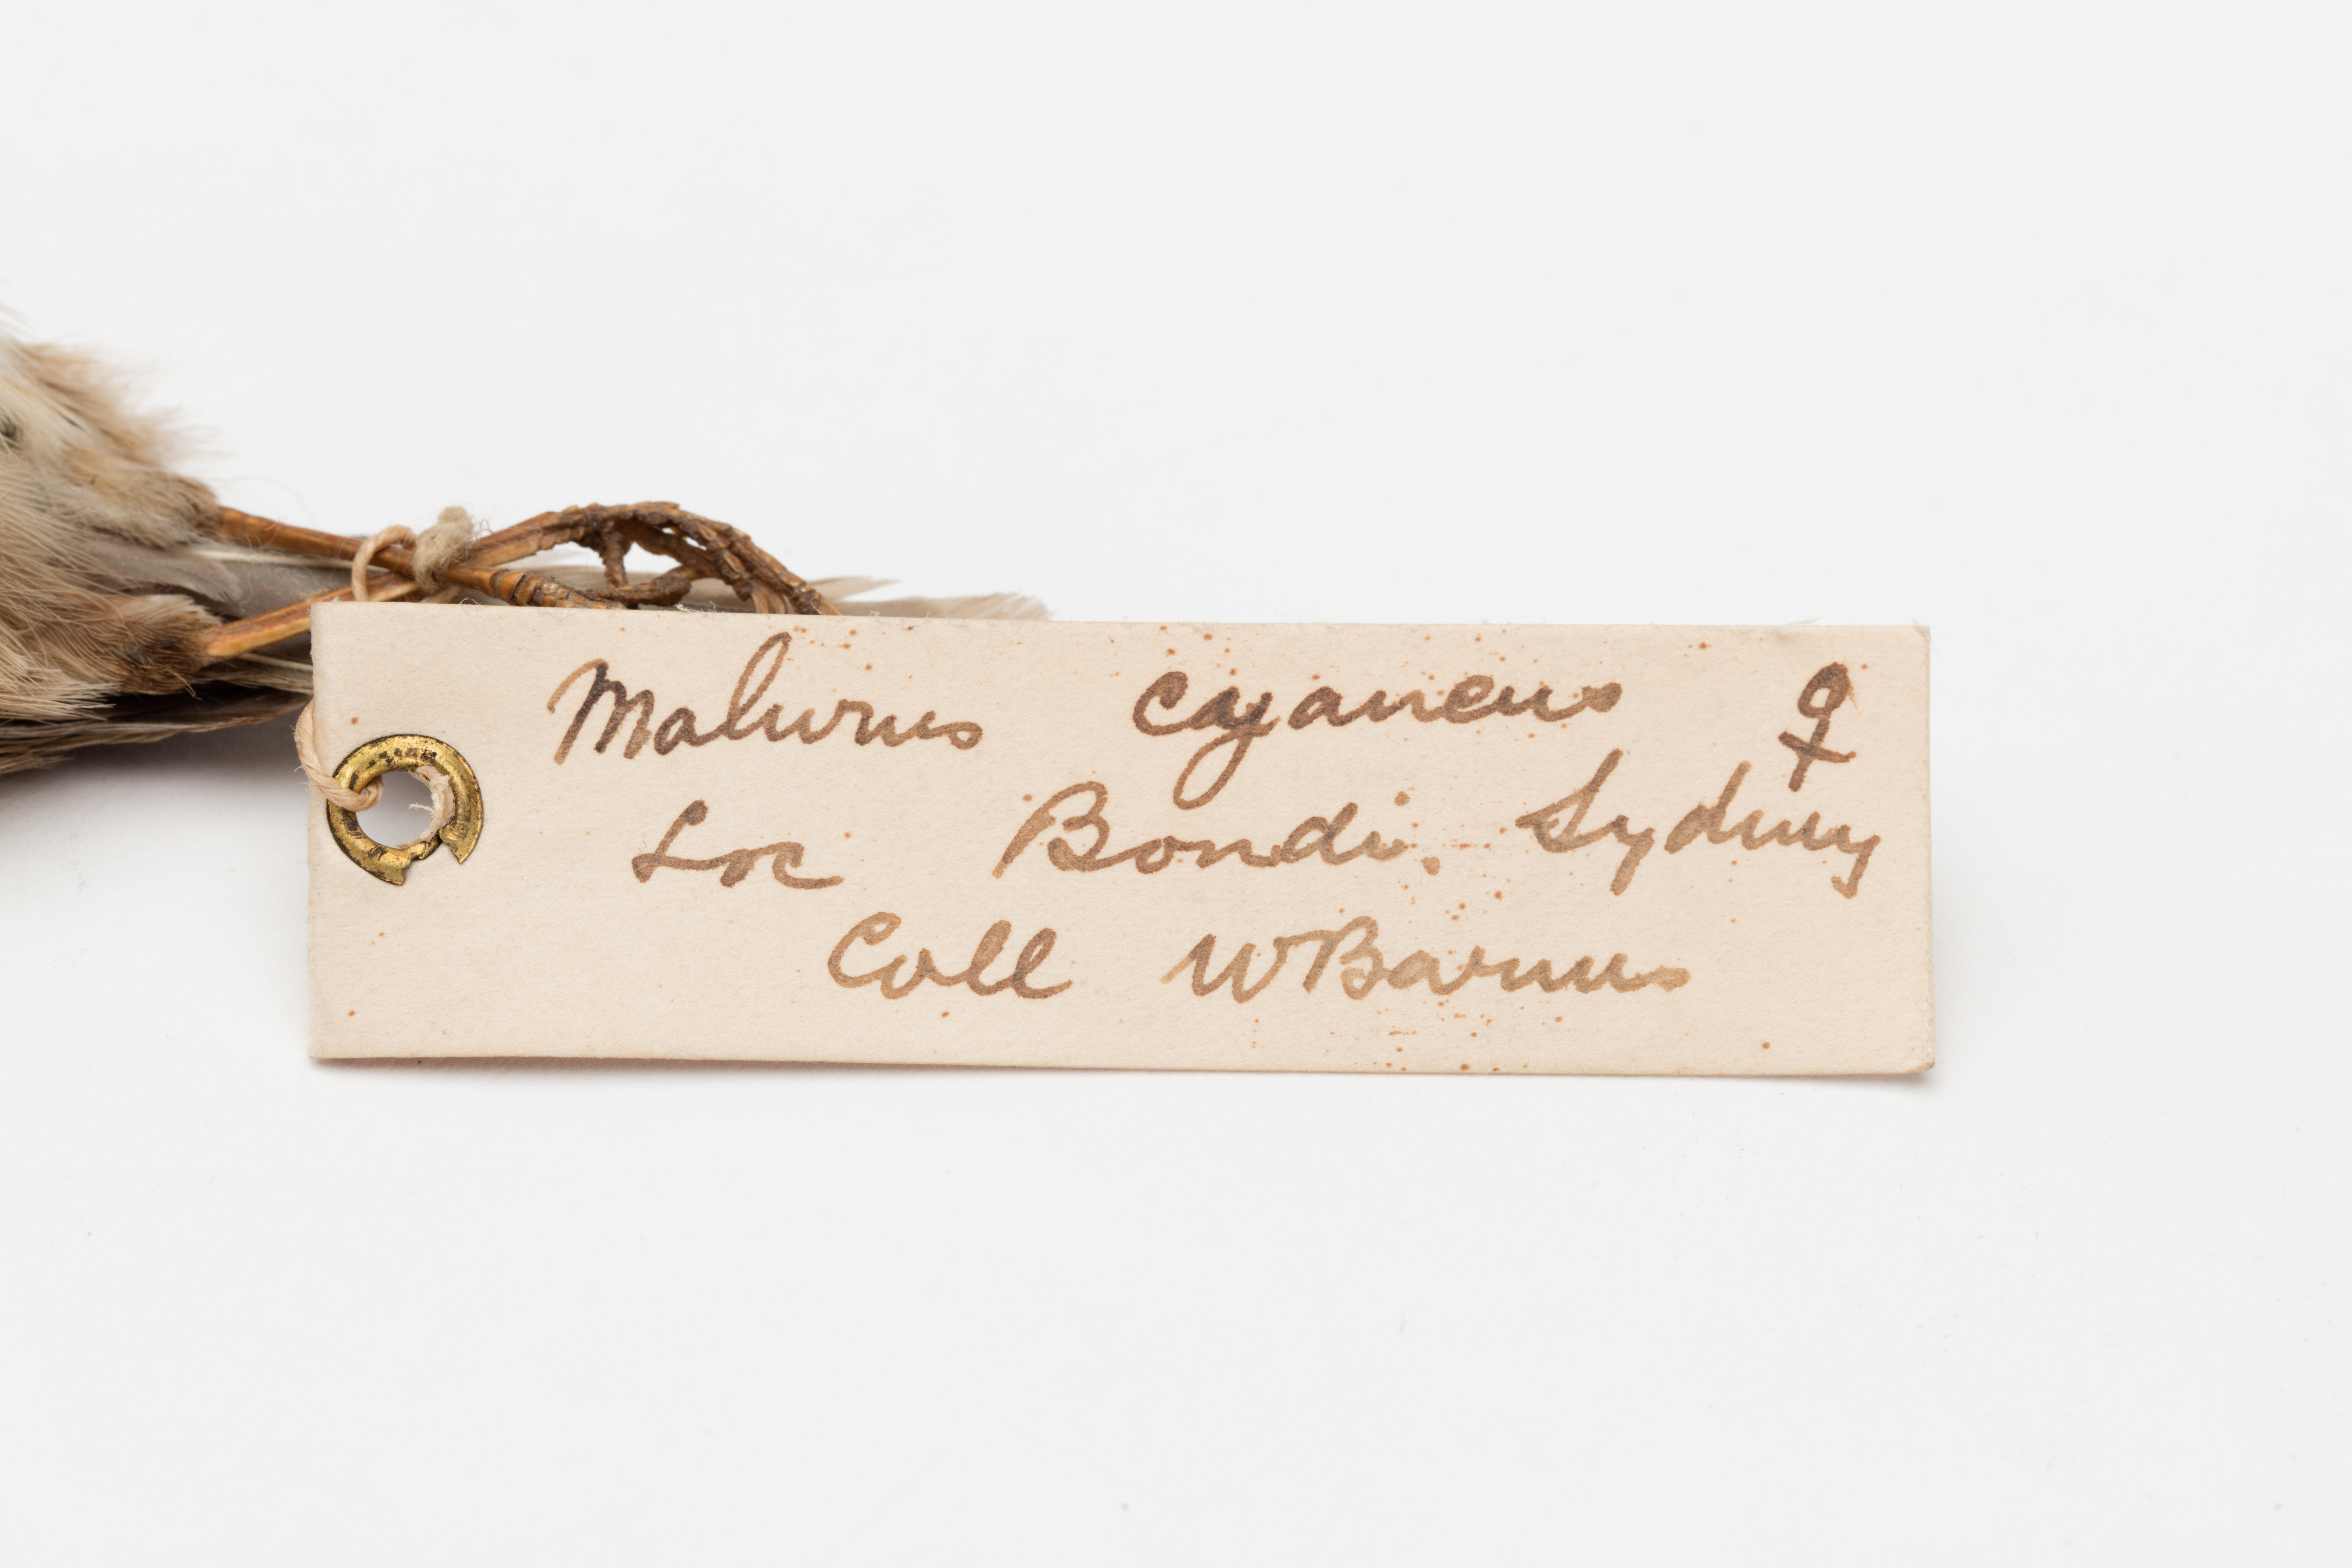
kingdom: Animalia
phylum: Chordata
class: Aves
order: Passeriformes
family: Maluridae
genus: Malurus
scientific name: Malurus cyaneus
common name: Superb fairywren
